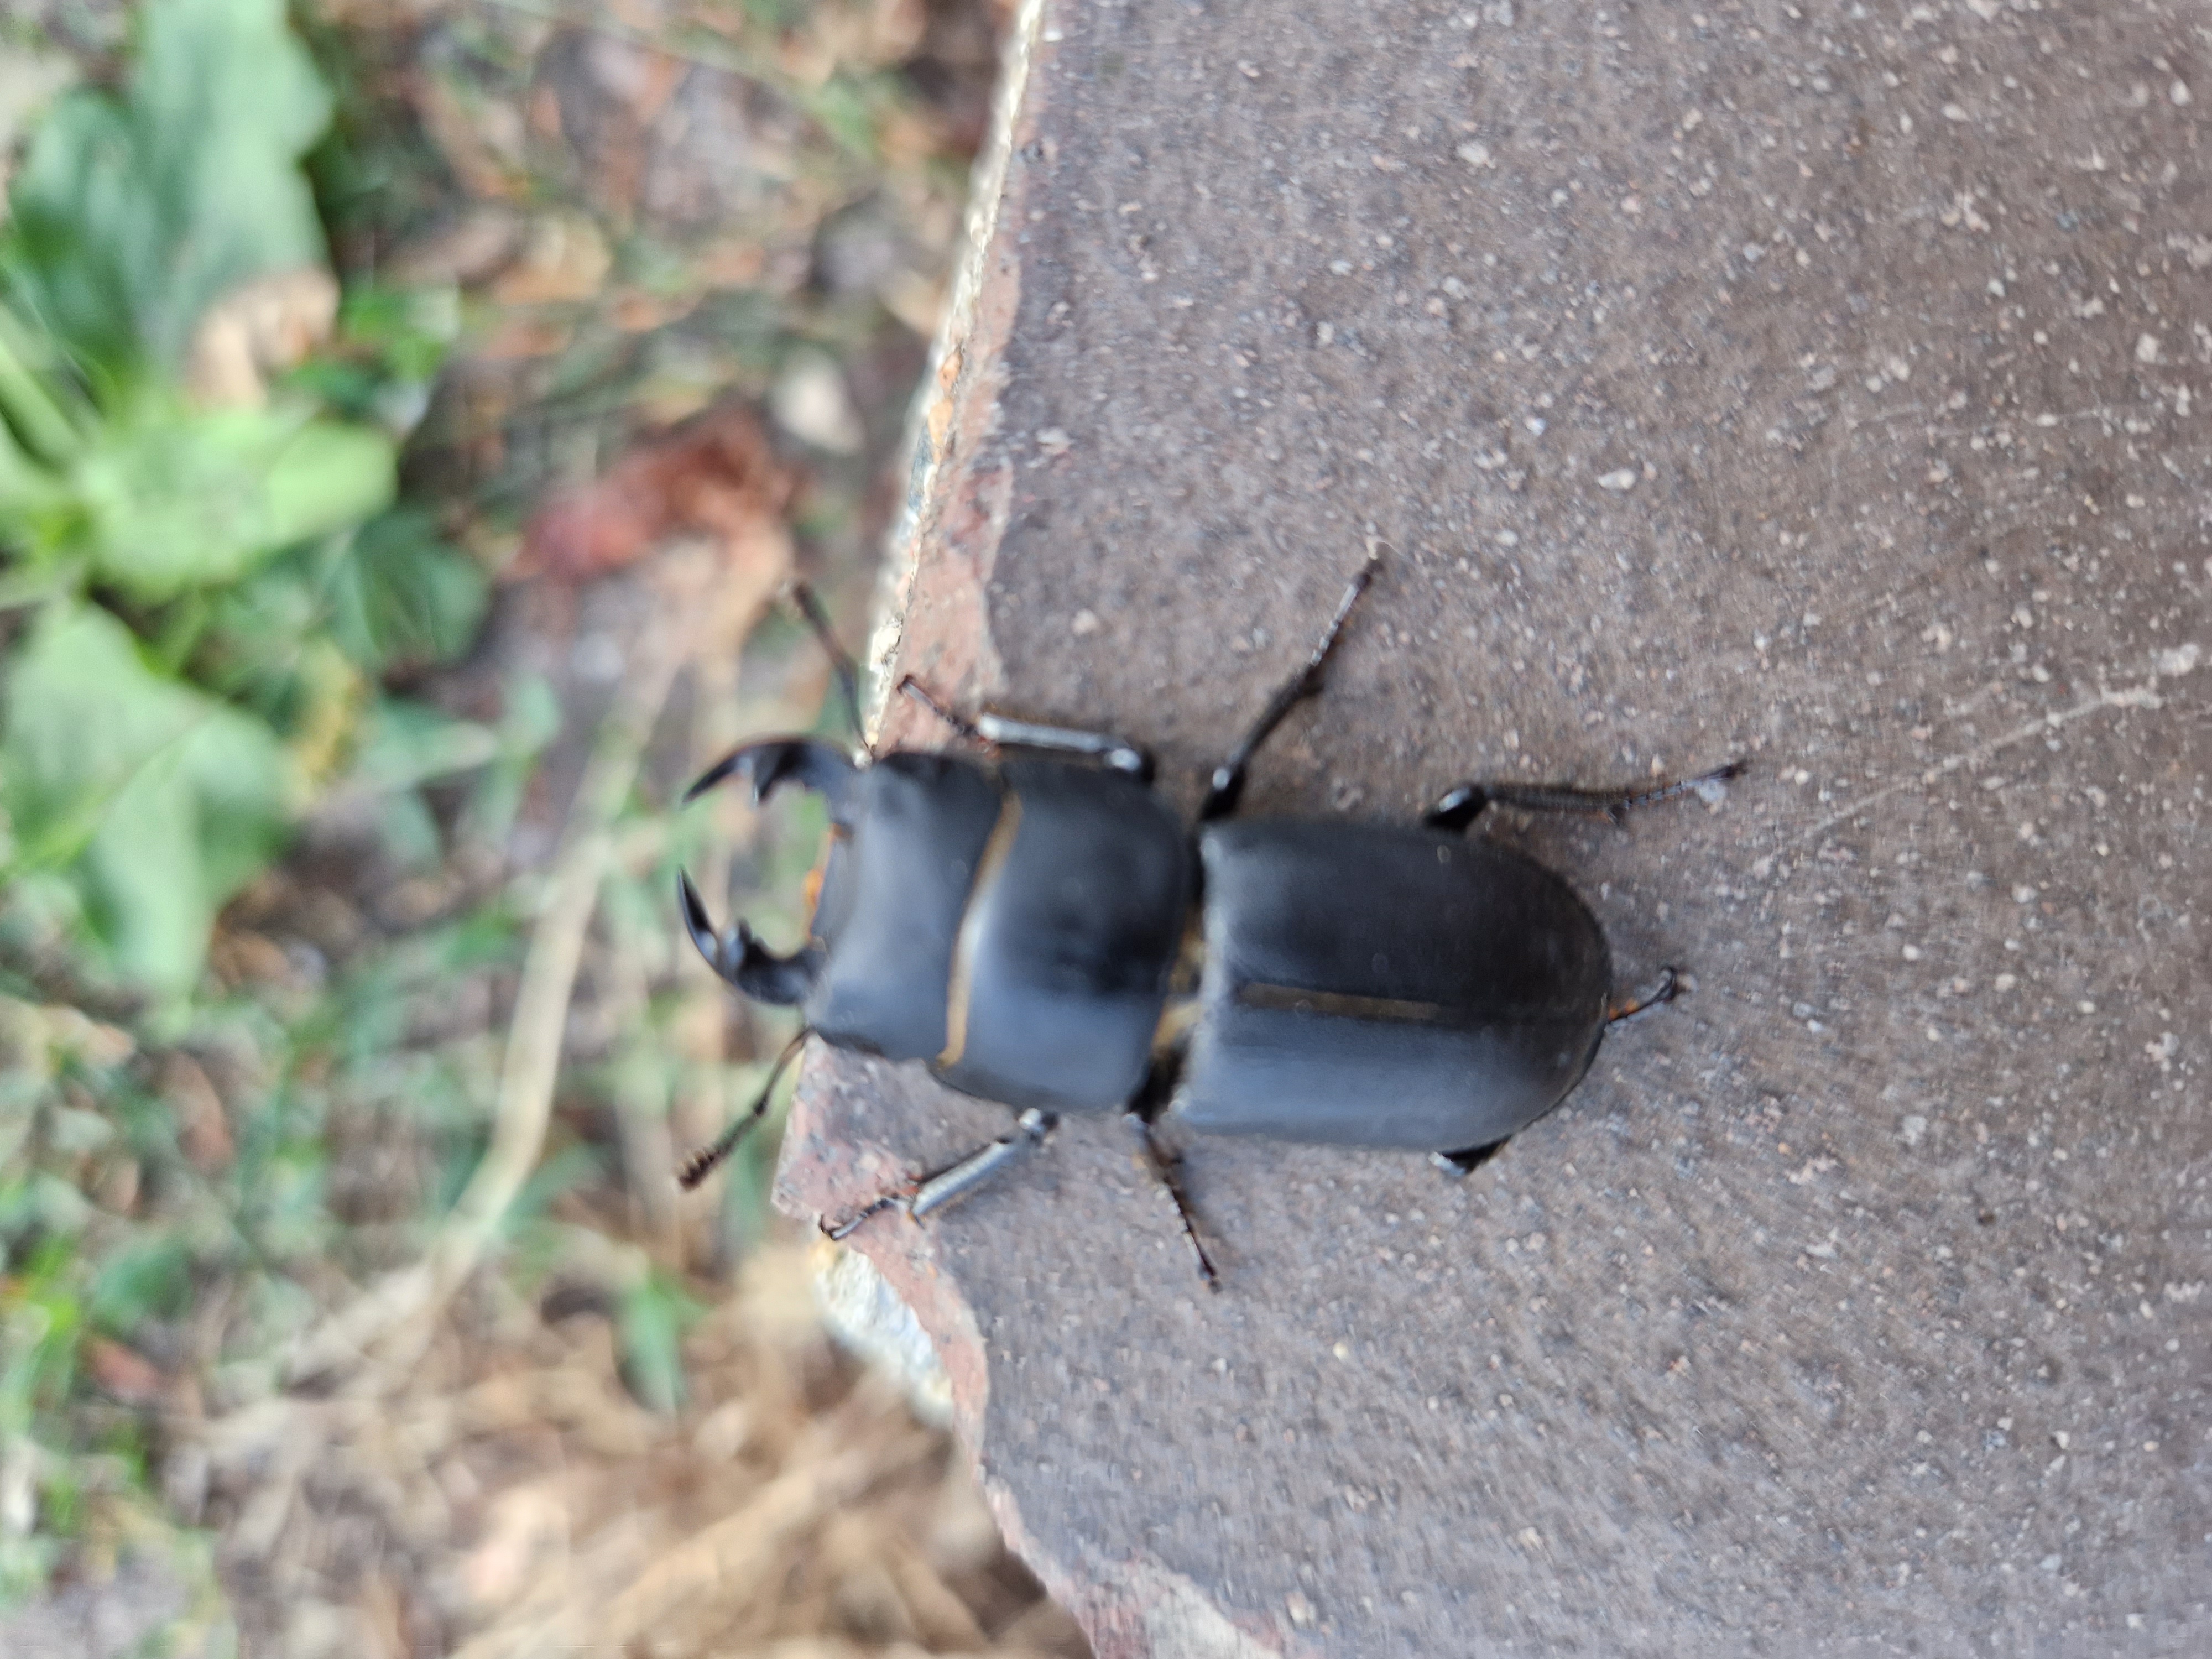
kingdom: Animalia
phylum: Arthropoda
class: Insecta
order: Coleoptera
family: Lucanidae
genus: Dorcus
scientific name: Dorcus parallelipipedus
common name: Bøghjort
